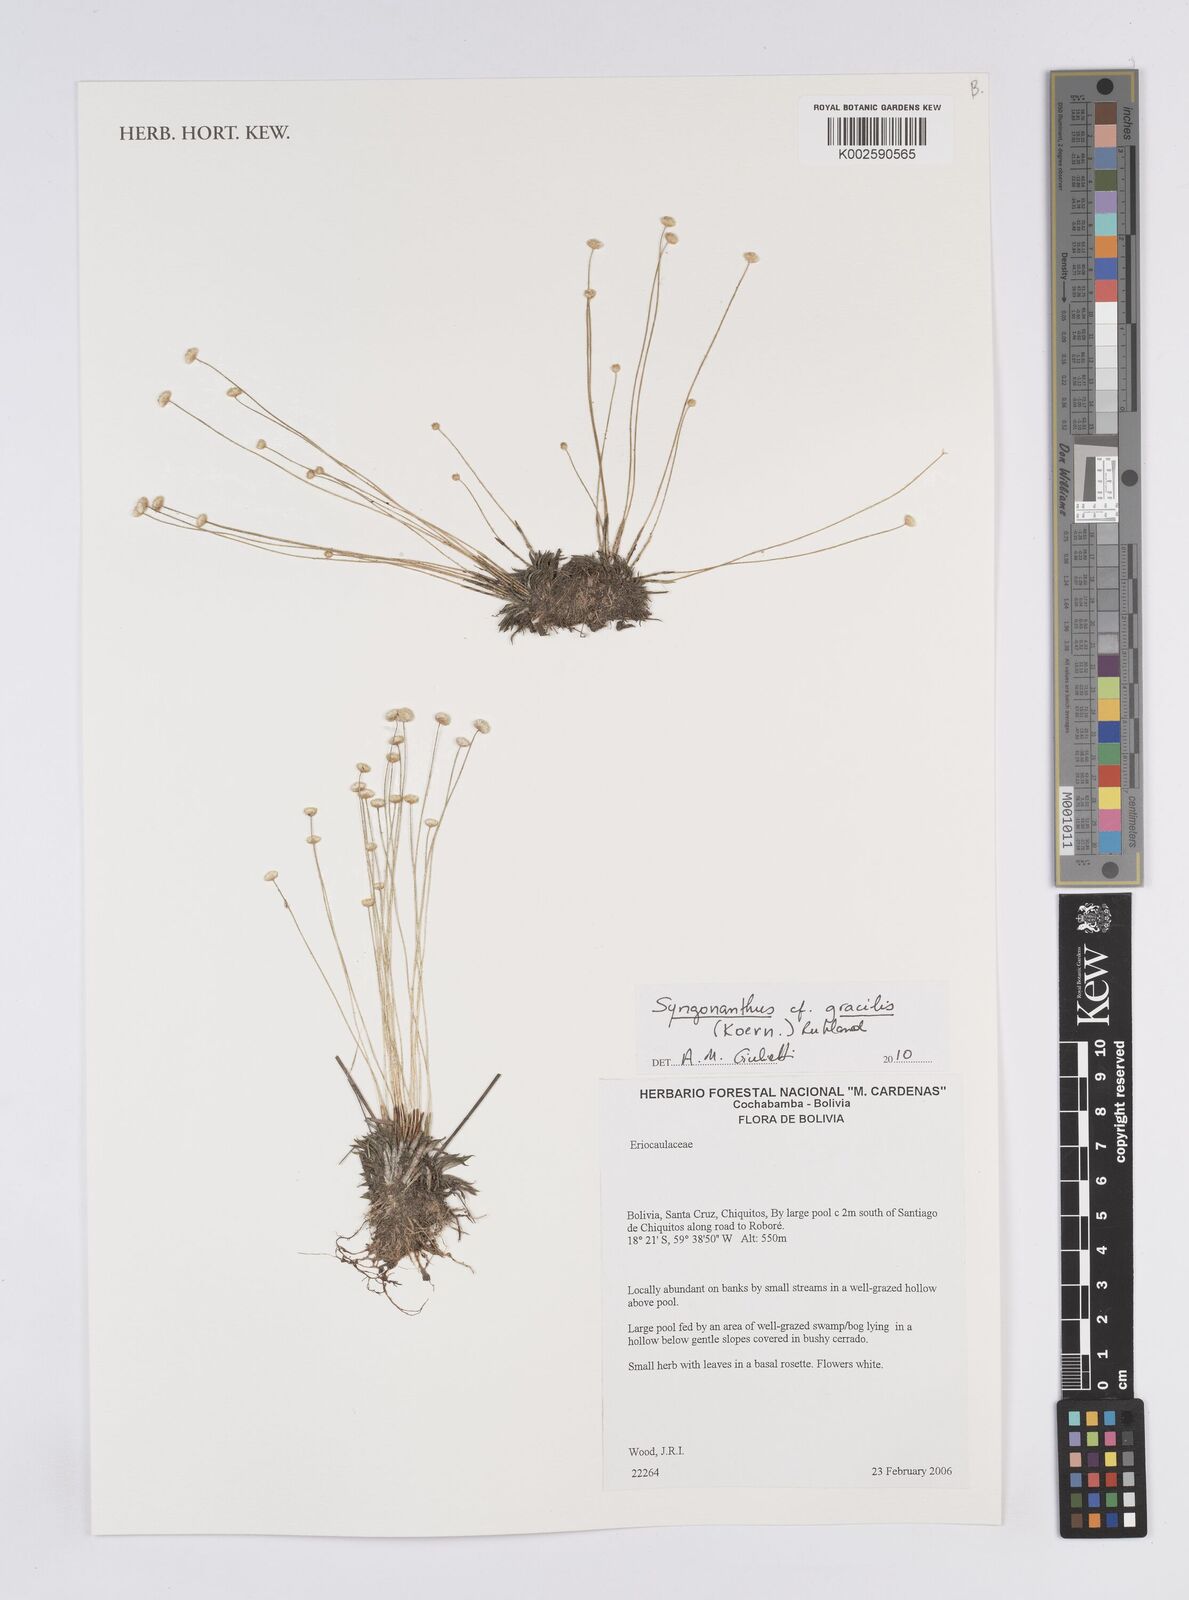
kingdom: Plantae
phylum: Tracheophyta
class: Liliopsida
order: Poales
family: Eriocaulaceae
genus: Syngonanthus
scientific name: Syngonanthus
